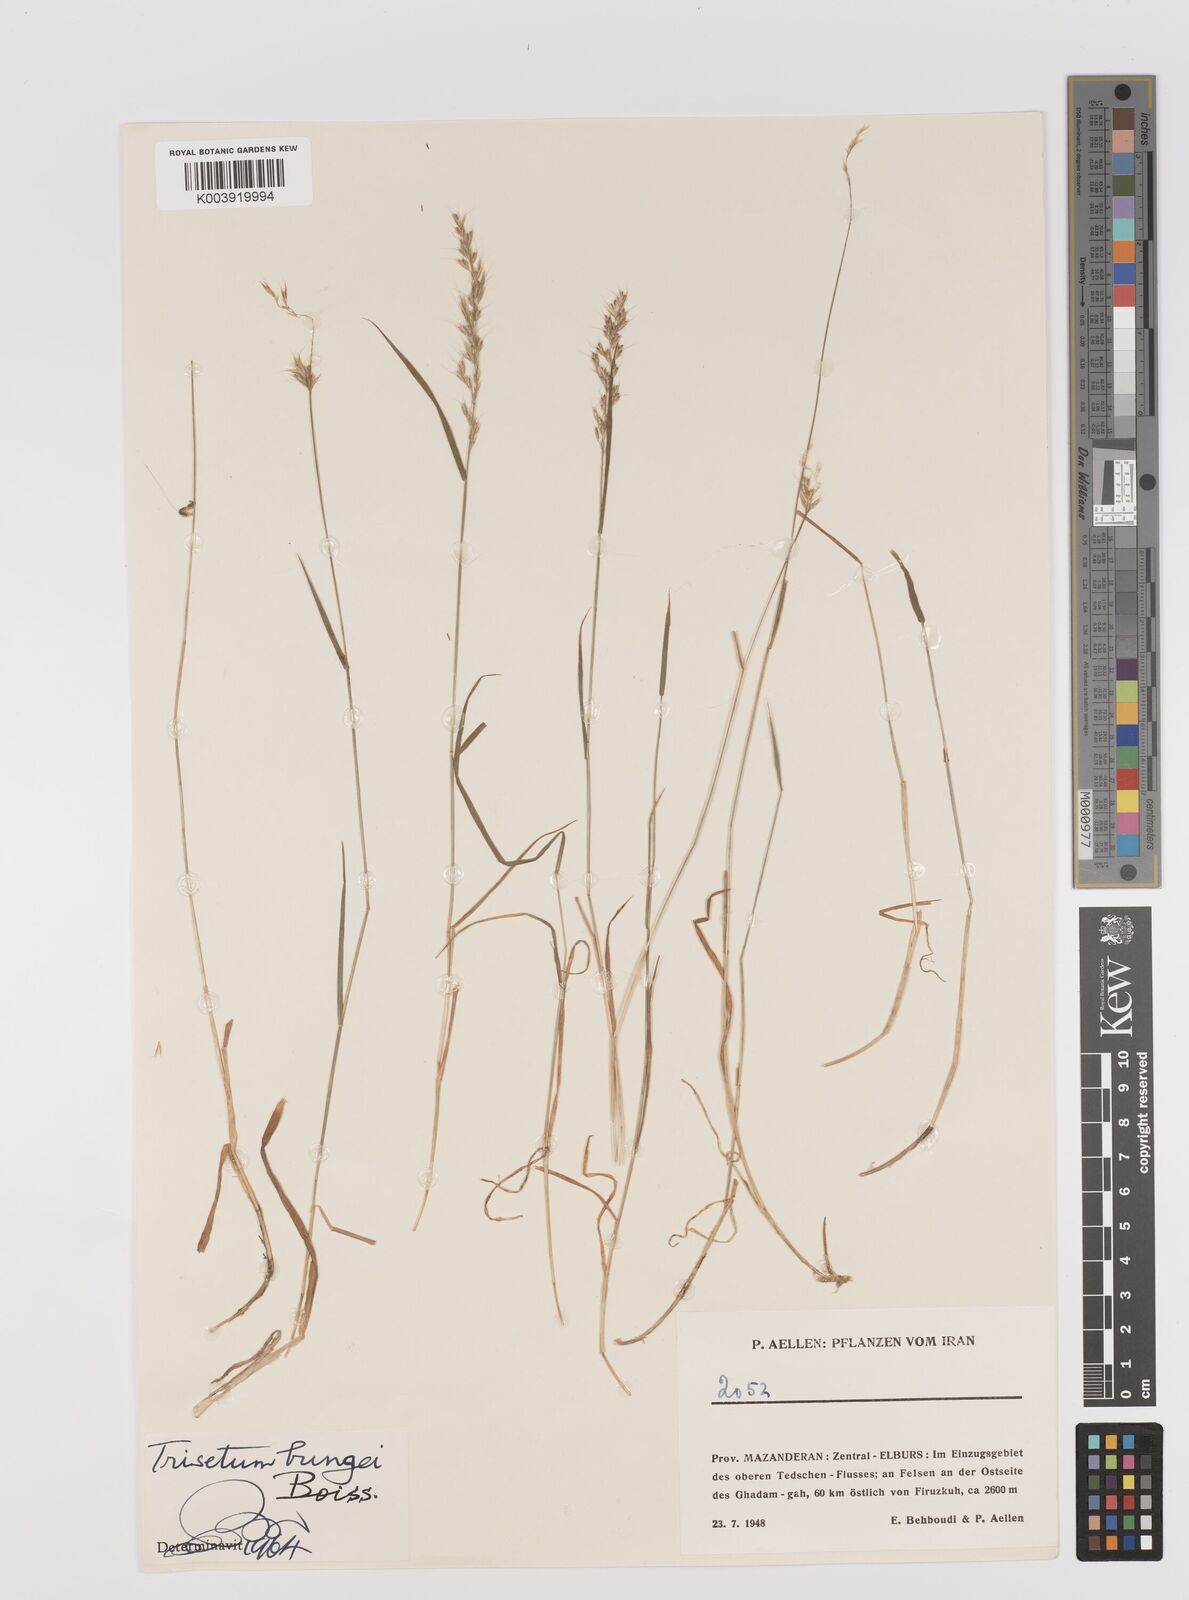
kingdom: Plantae
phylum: Tracheophyta
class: Liliopsida
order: Poales
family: Poaceae
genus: Trisetum
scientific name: Trisetum flavescens
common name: Yellow oat-grass
